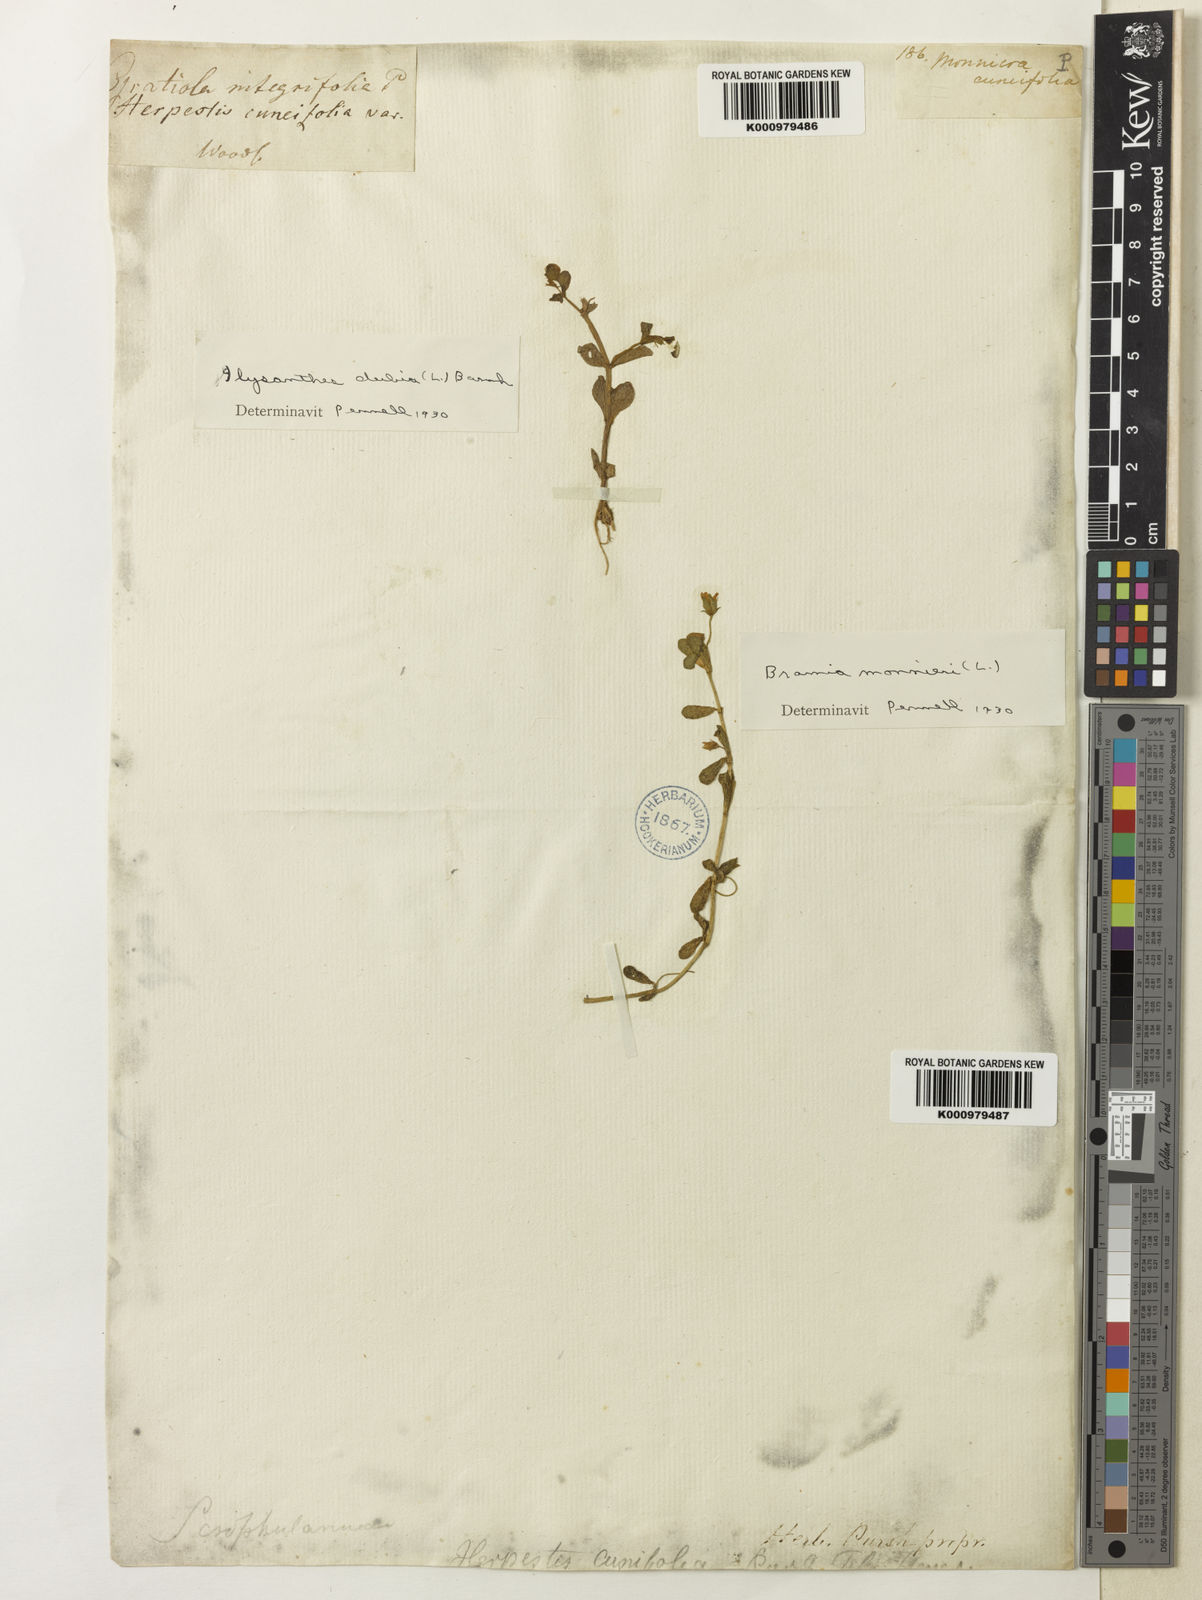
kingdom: Plantae
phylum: Tracheophyta
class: Magnoliopsida
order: Lamiales
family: Plantaginaceae
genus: Bacopa
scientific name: Bacopa
